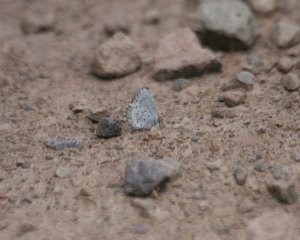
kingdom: Animalia
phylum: Arthropoda
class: Insecta
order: Lepidoptera
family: Lycaenidae
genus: Celastrina
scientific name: Celastrina serotina
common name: Cherry Gall Azure
